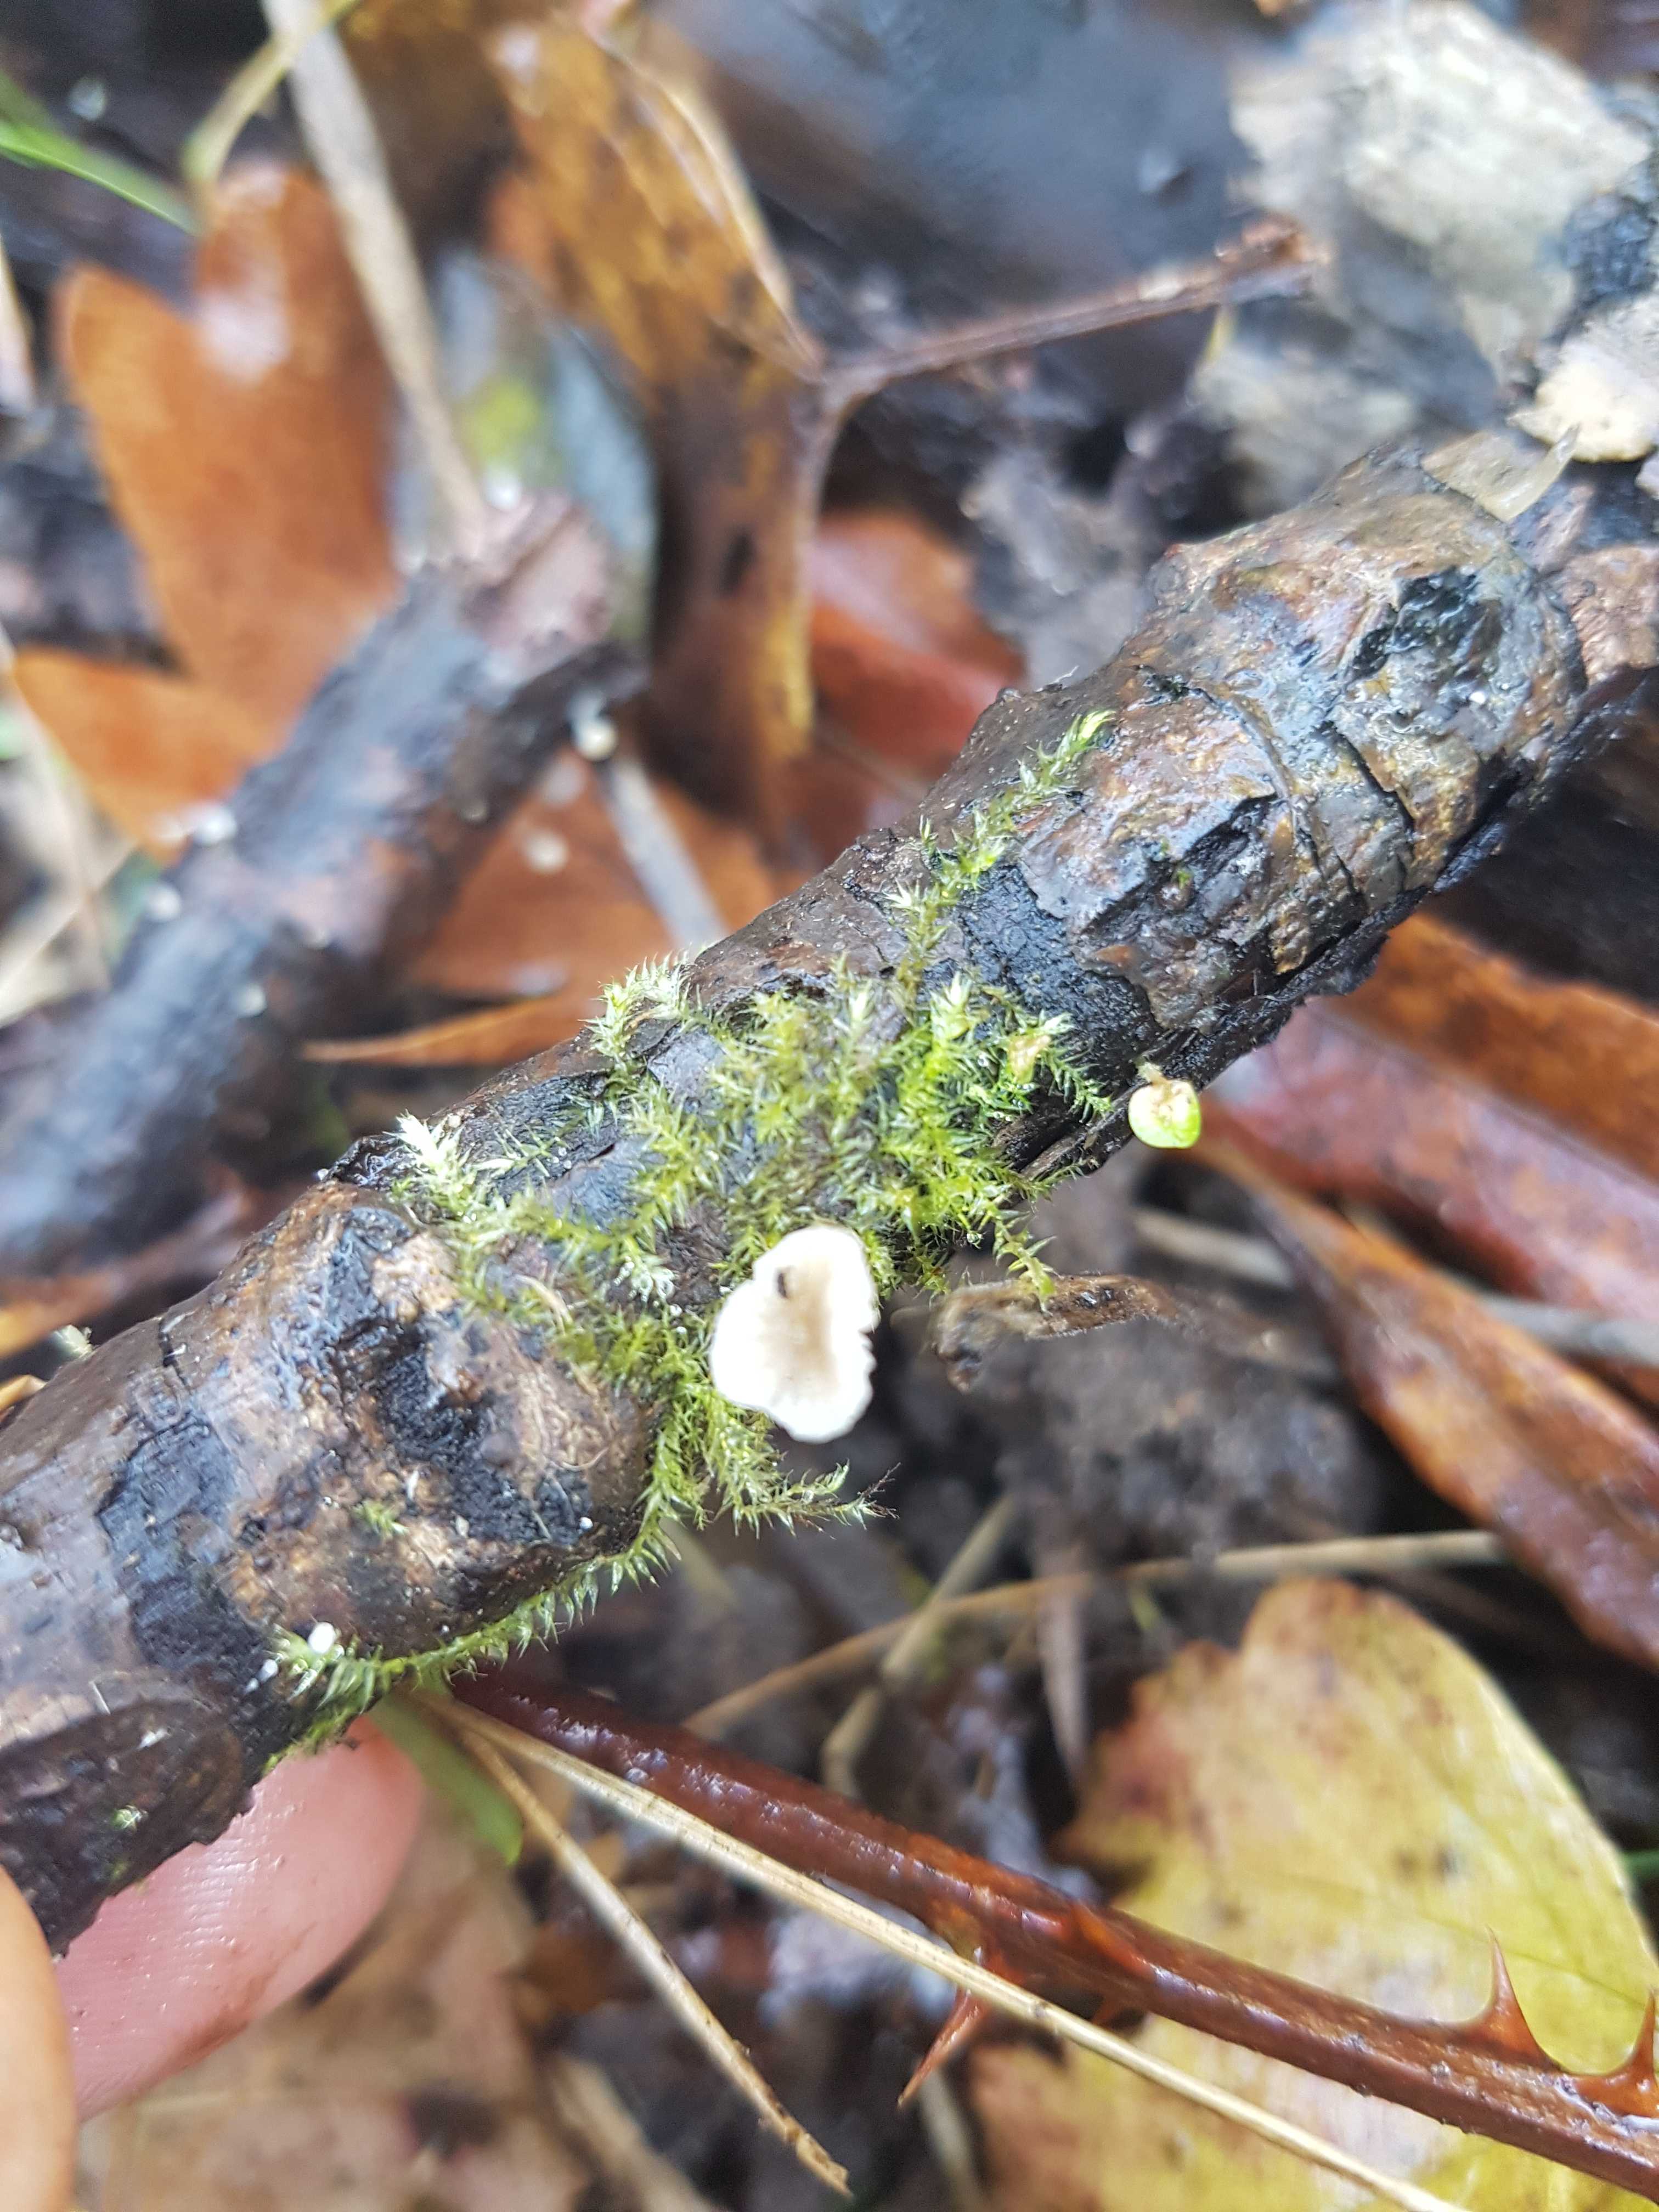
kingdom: Fungi
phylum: Basidiomycota
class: Agaricomycetes
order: Agaricales
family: Mycenaceae
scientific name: Mycenaceae
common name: huesvampfamilien
